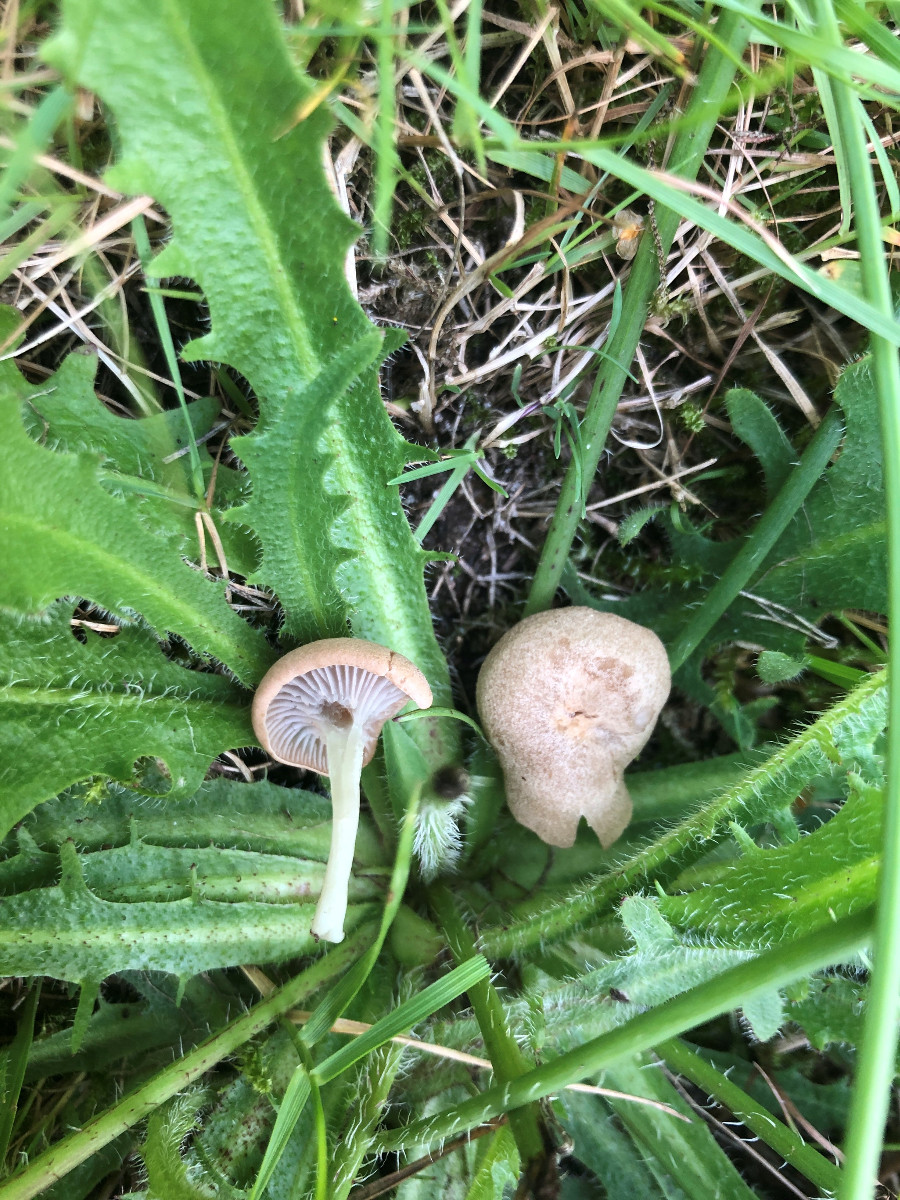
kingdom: Fungi
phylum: Basidiomycota
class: Agaricomycetes
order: Agaricales
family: Entolomataceae
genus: Entoloma
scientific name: Entoloma neglectum
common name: bleg rødblad
